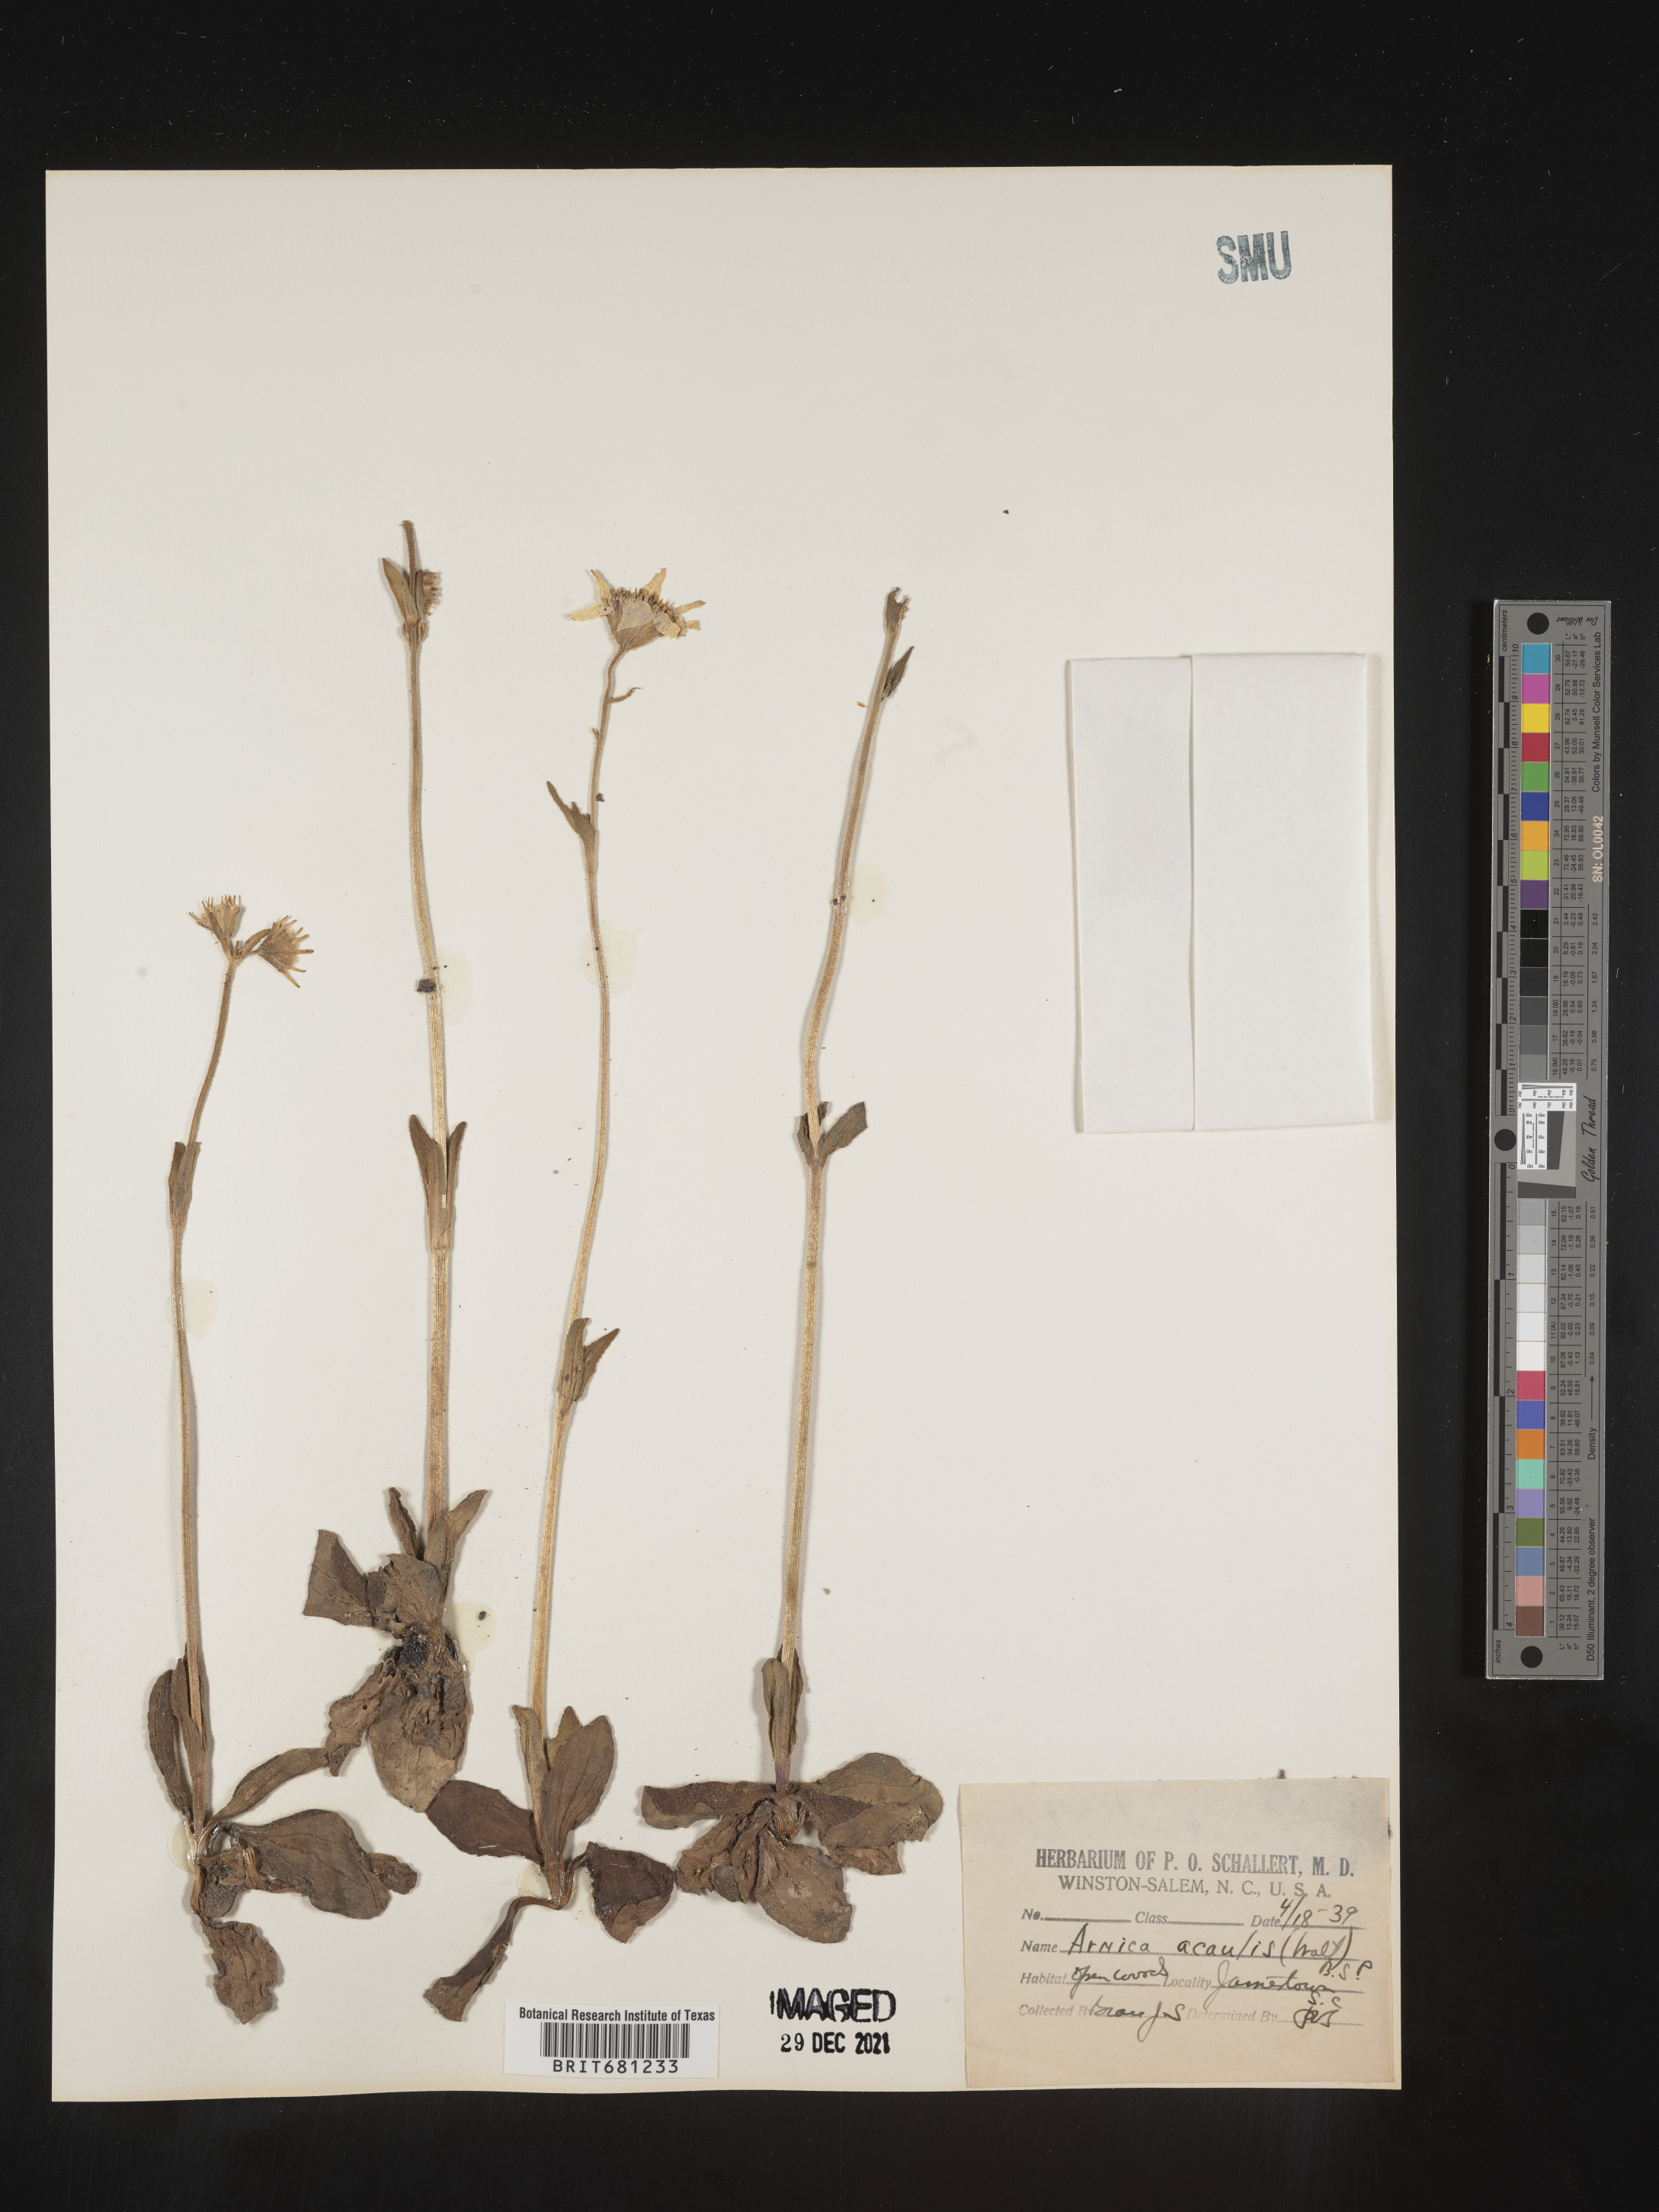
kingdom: Plantae
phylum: Tracheophyta
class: Magnoliopsida
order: Asterales
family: Asteraceae
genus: Arnica
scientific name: Arnica acaulis
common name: Common leopardbane
